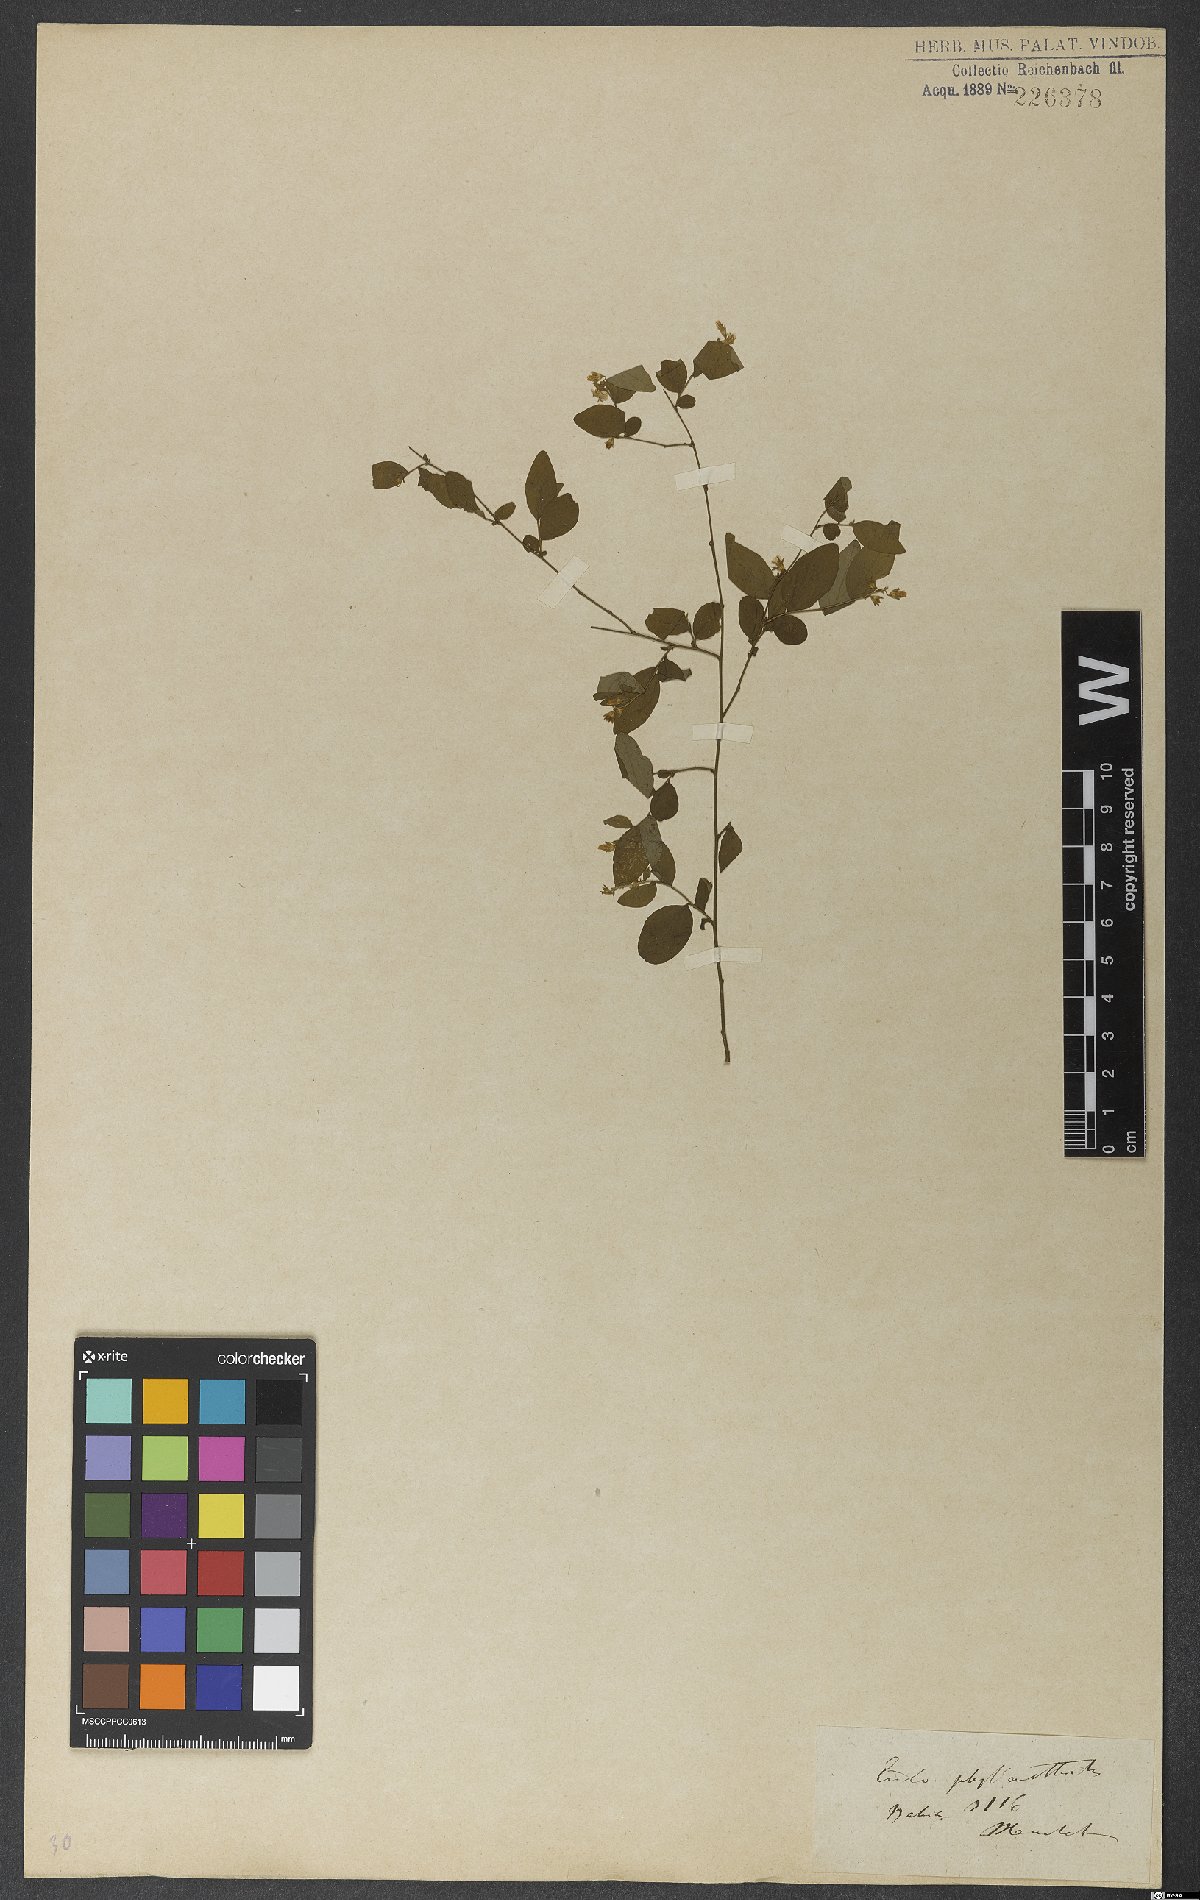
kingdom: Plantae
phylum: Tracheophyta
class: Magnoliopsida
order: Solanales
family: Convolvulaceae
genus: Evolvulus
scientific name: Evolvulus phyllanthoides
